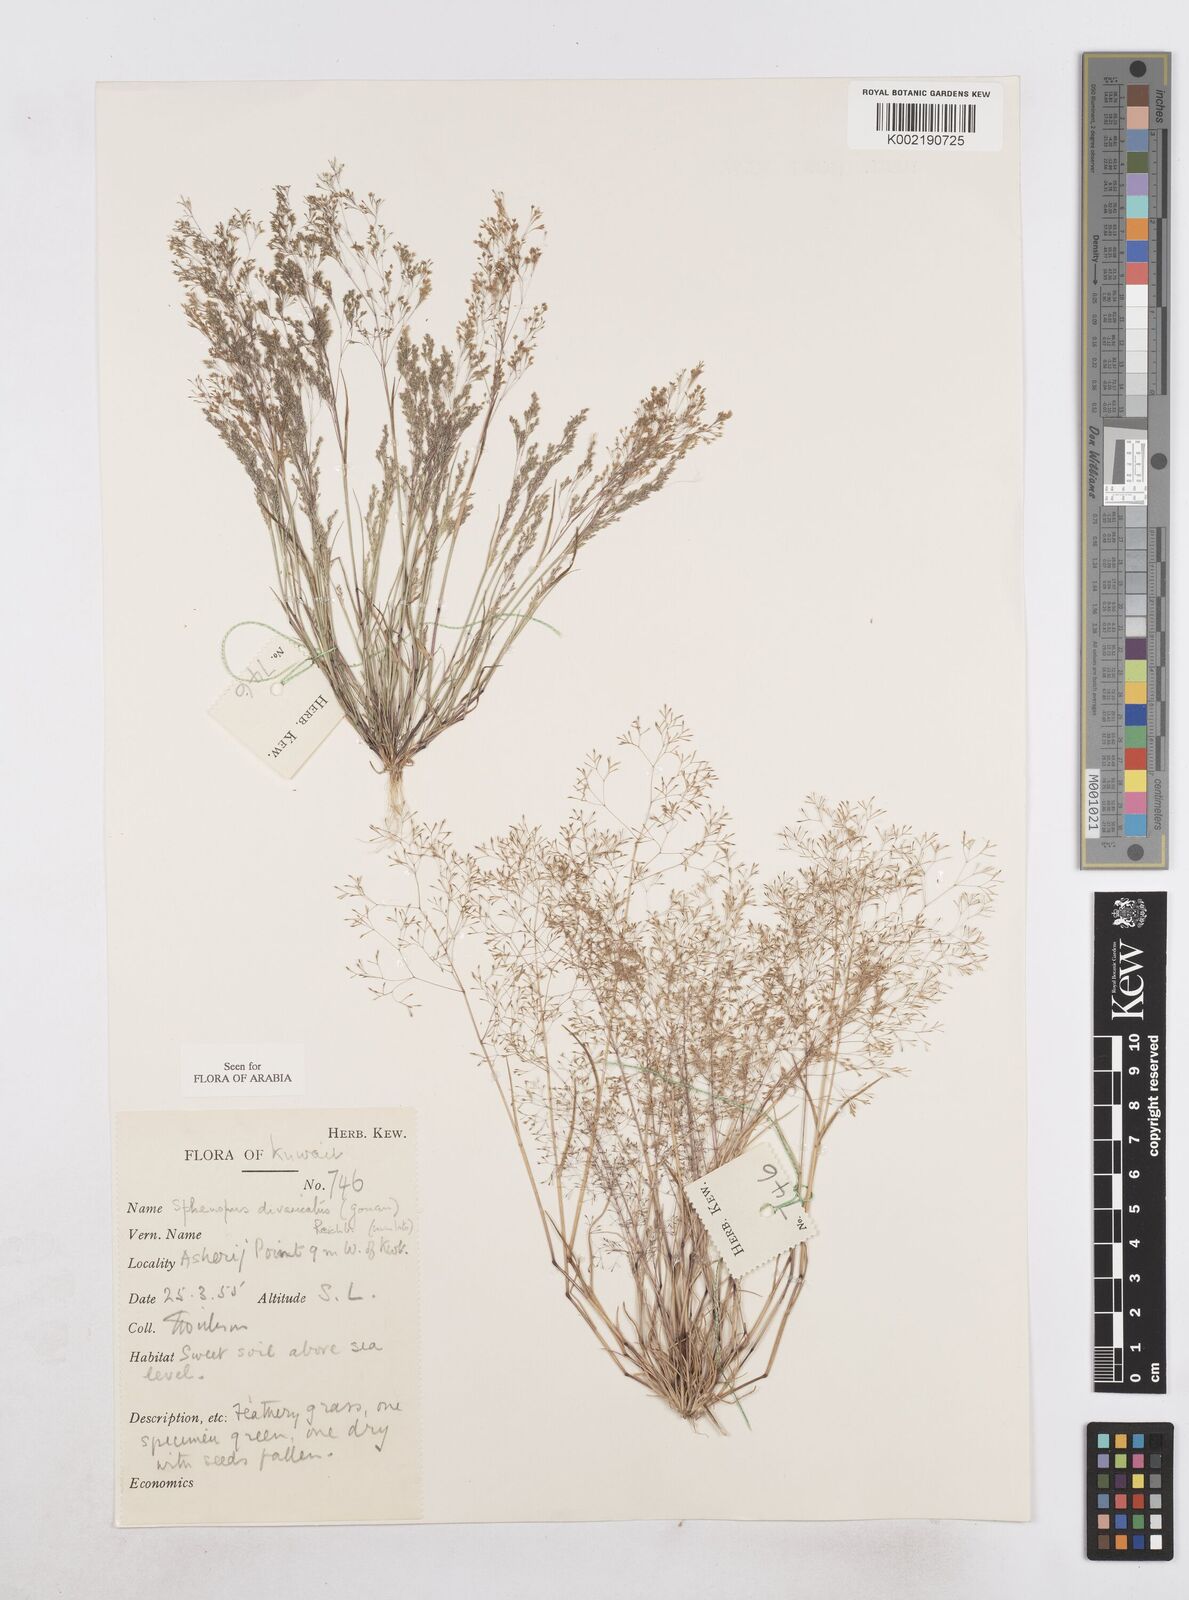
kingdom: Plantae
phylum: Tracheophyta
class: Liliopsida
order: Poales
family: Poaceae
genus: Sphenopus
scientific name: Sphenopus divaricatus
